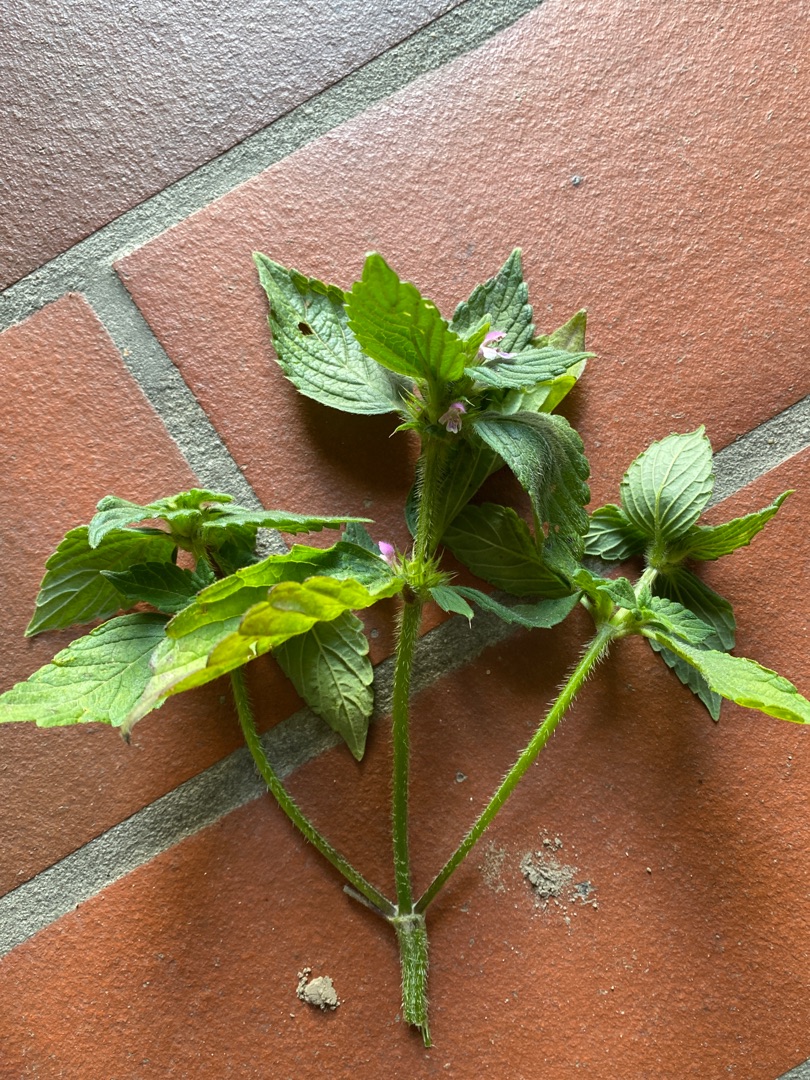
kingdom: Plantae
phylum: Tracheophyta
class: Magnoliopsida
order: Lamiales
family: Lamiaceae
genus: Galeopsis
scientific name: Galeopsis bifida
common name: Skov-hanekro
